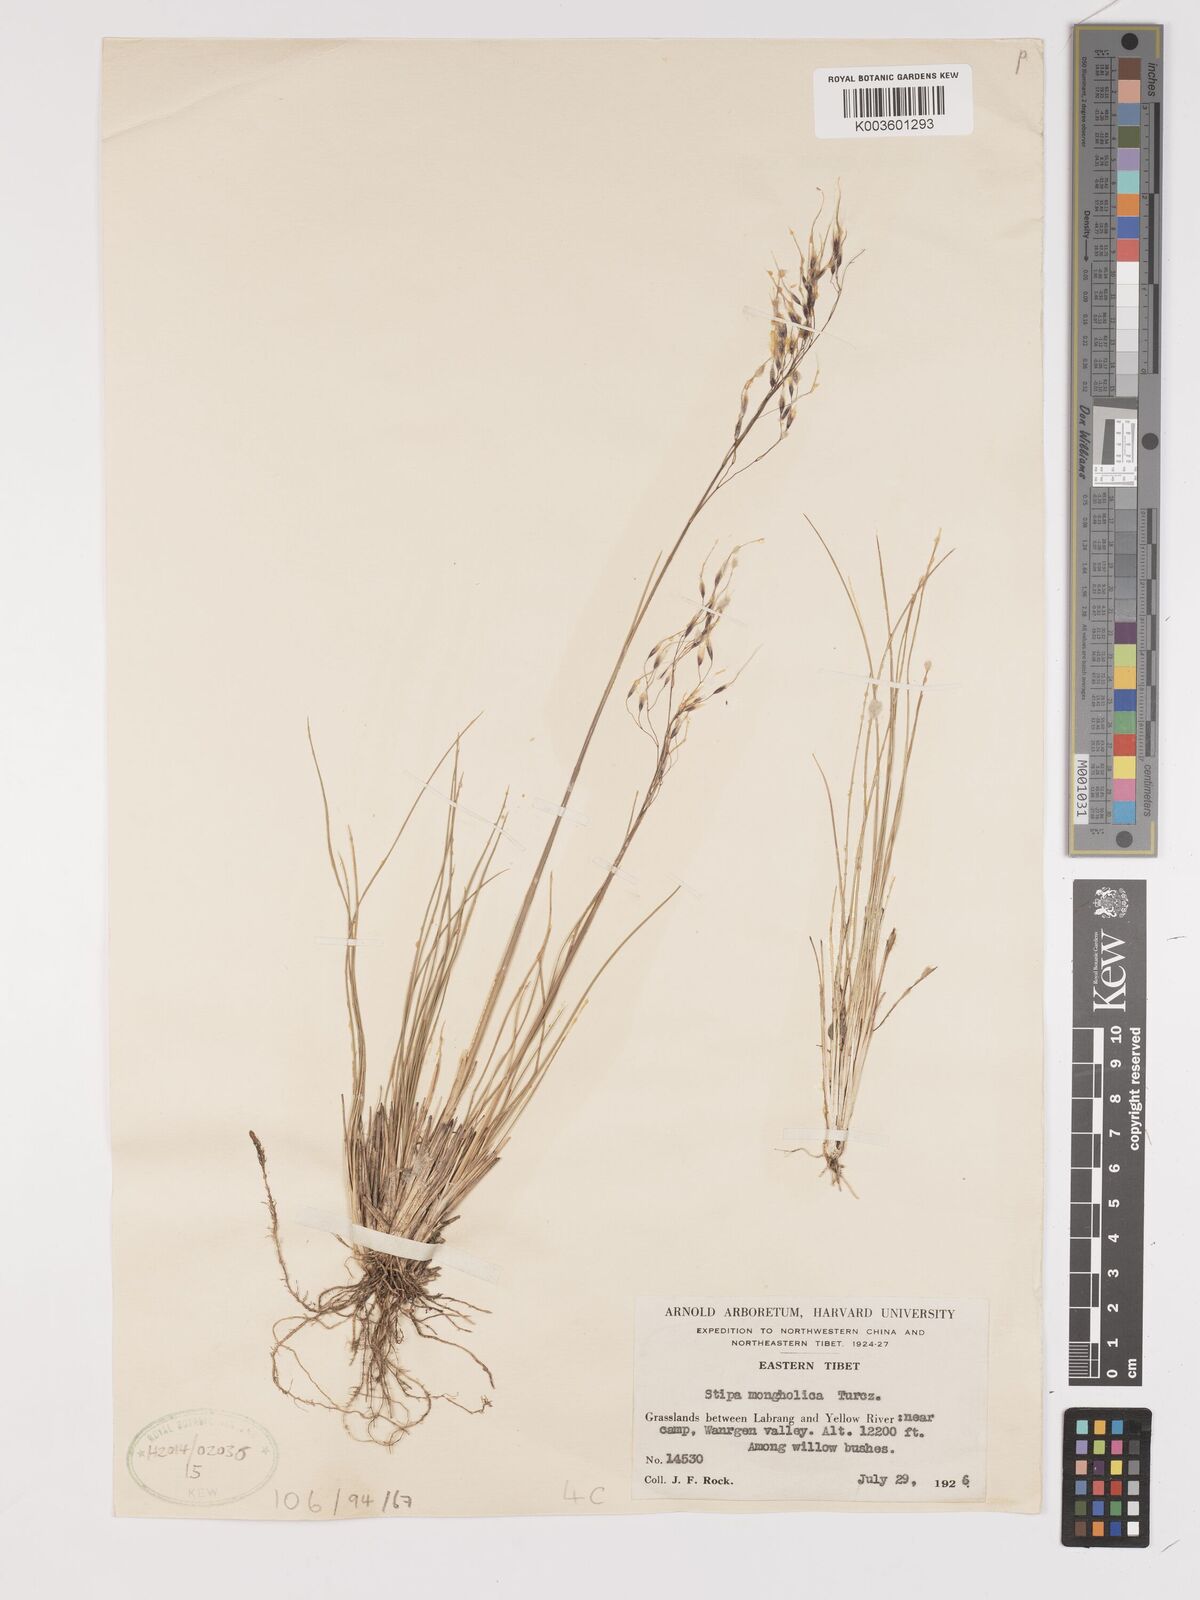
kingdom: Plantae
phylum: Tracheophyta
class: Liliopsida
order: Poales
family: Poaceae
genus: Ptilagrostis
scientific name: Ptilagrostis mongholica
